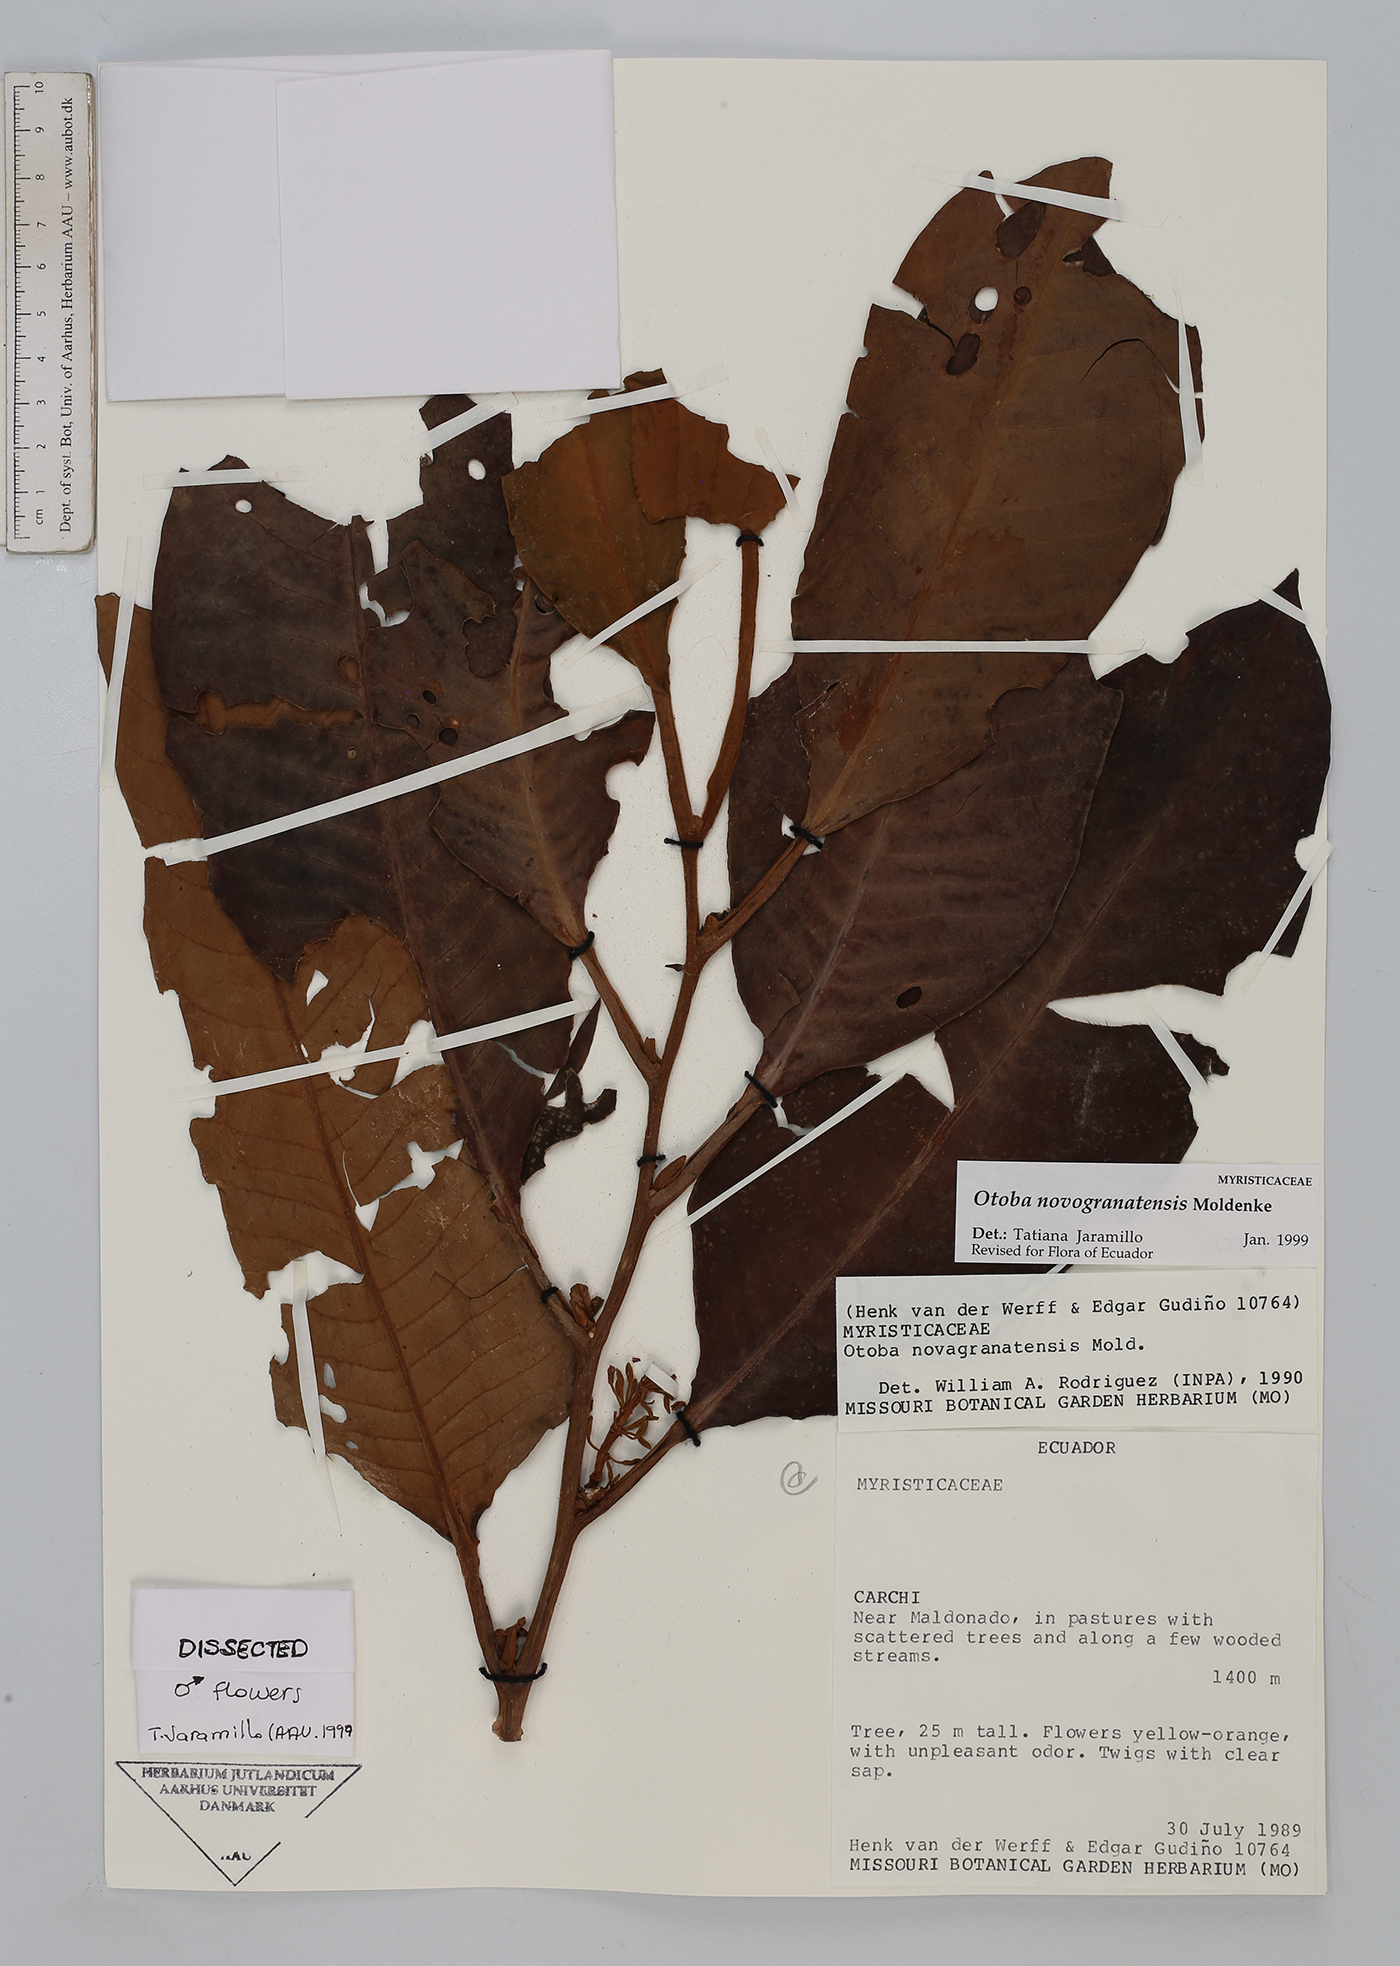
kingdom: Plantae
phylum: Tracheophyta
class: Magnoliopsida
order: Magnoliales
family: Myristicaceae
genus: Otoba
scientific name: Otoba novogranatensis
